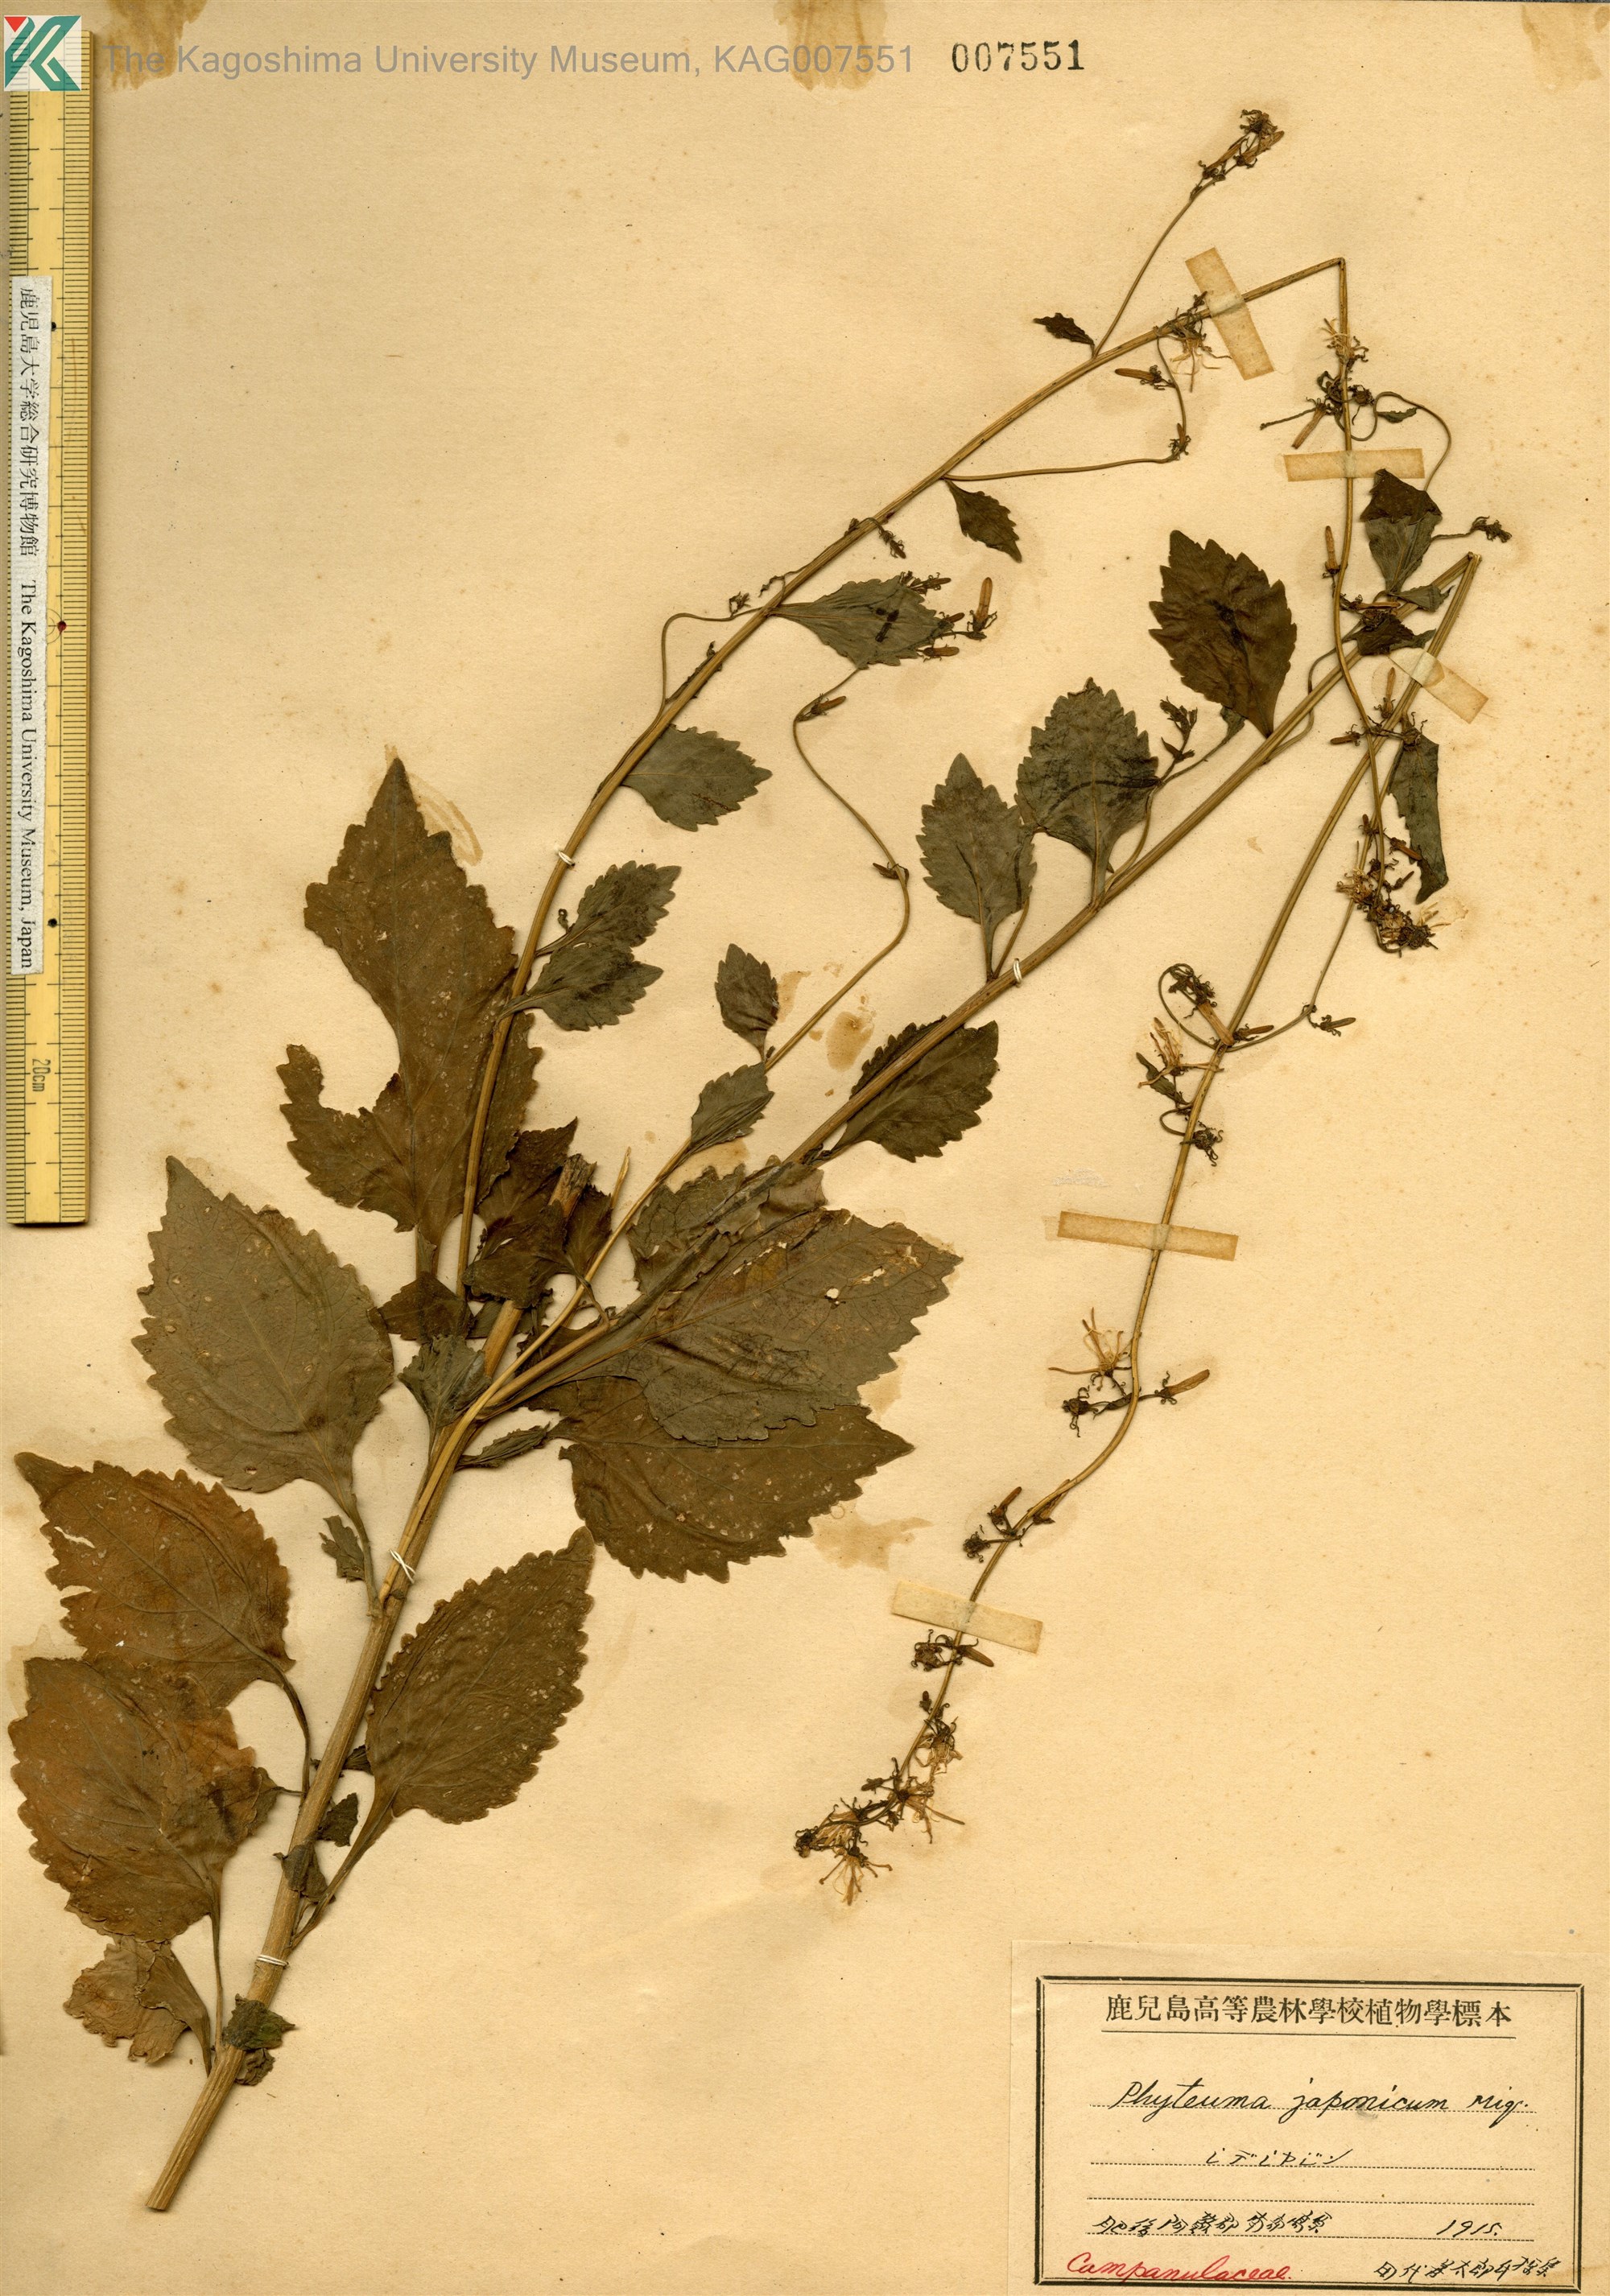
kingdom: Plantae
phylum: Tracheophyta
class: Magnoliopsida
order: Asterales
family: Campanulaceae
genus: Asyneuma
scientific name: Asyneuma japonicum
